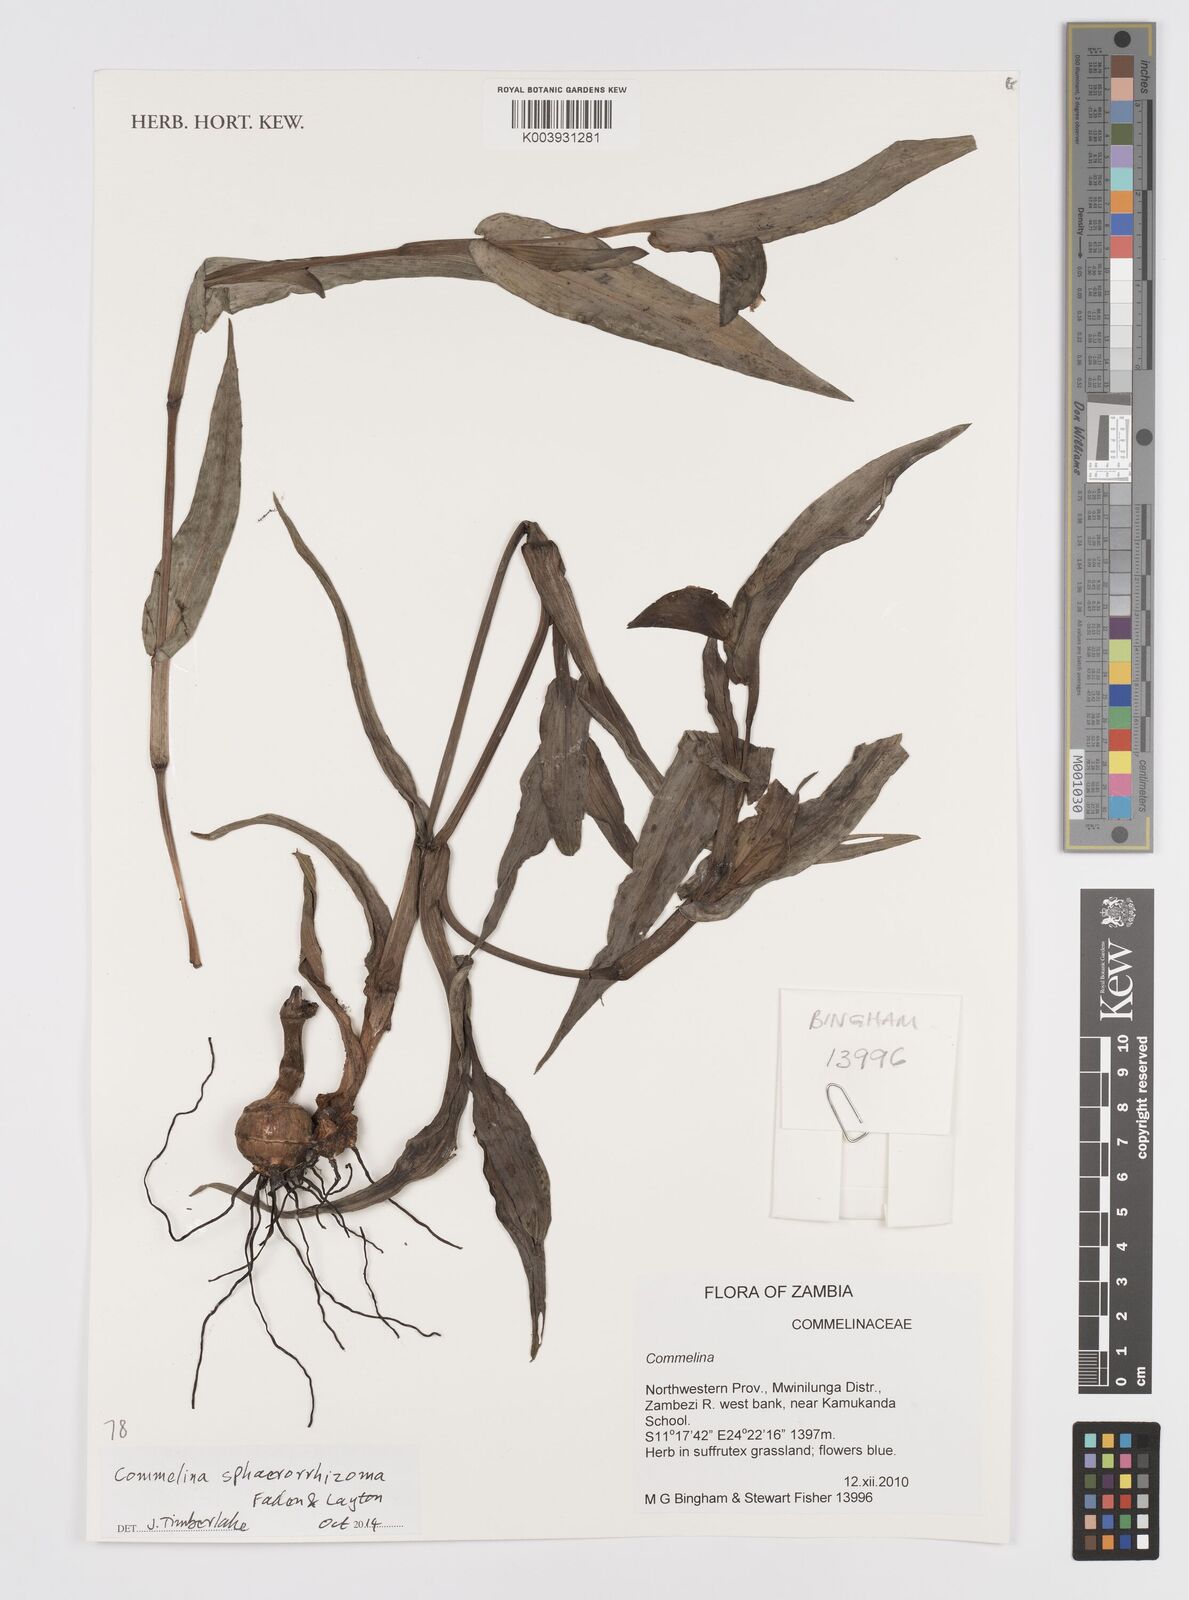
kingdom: Plantae
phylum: Tracheophyta
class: Liliopsida
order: Commelinales
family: Commelinaceae
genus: Commelina
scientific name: Commelina sphaerorrhizoma
